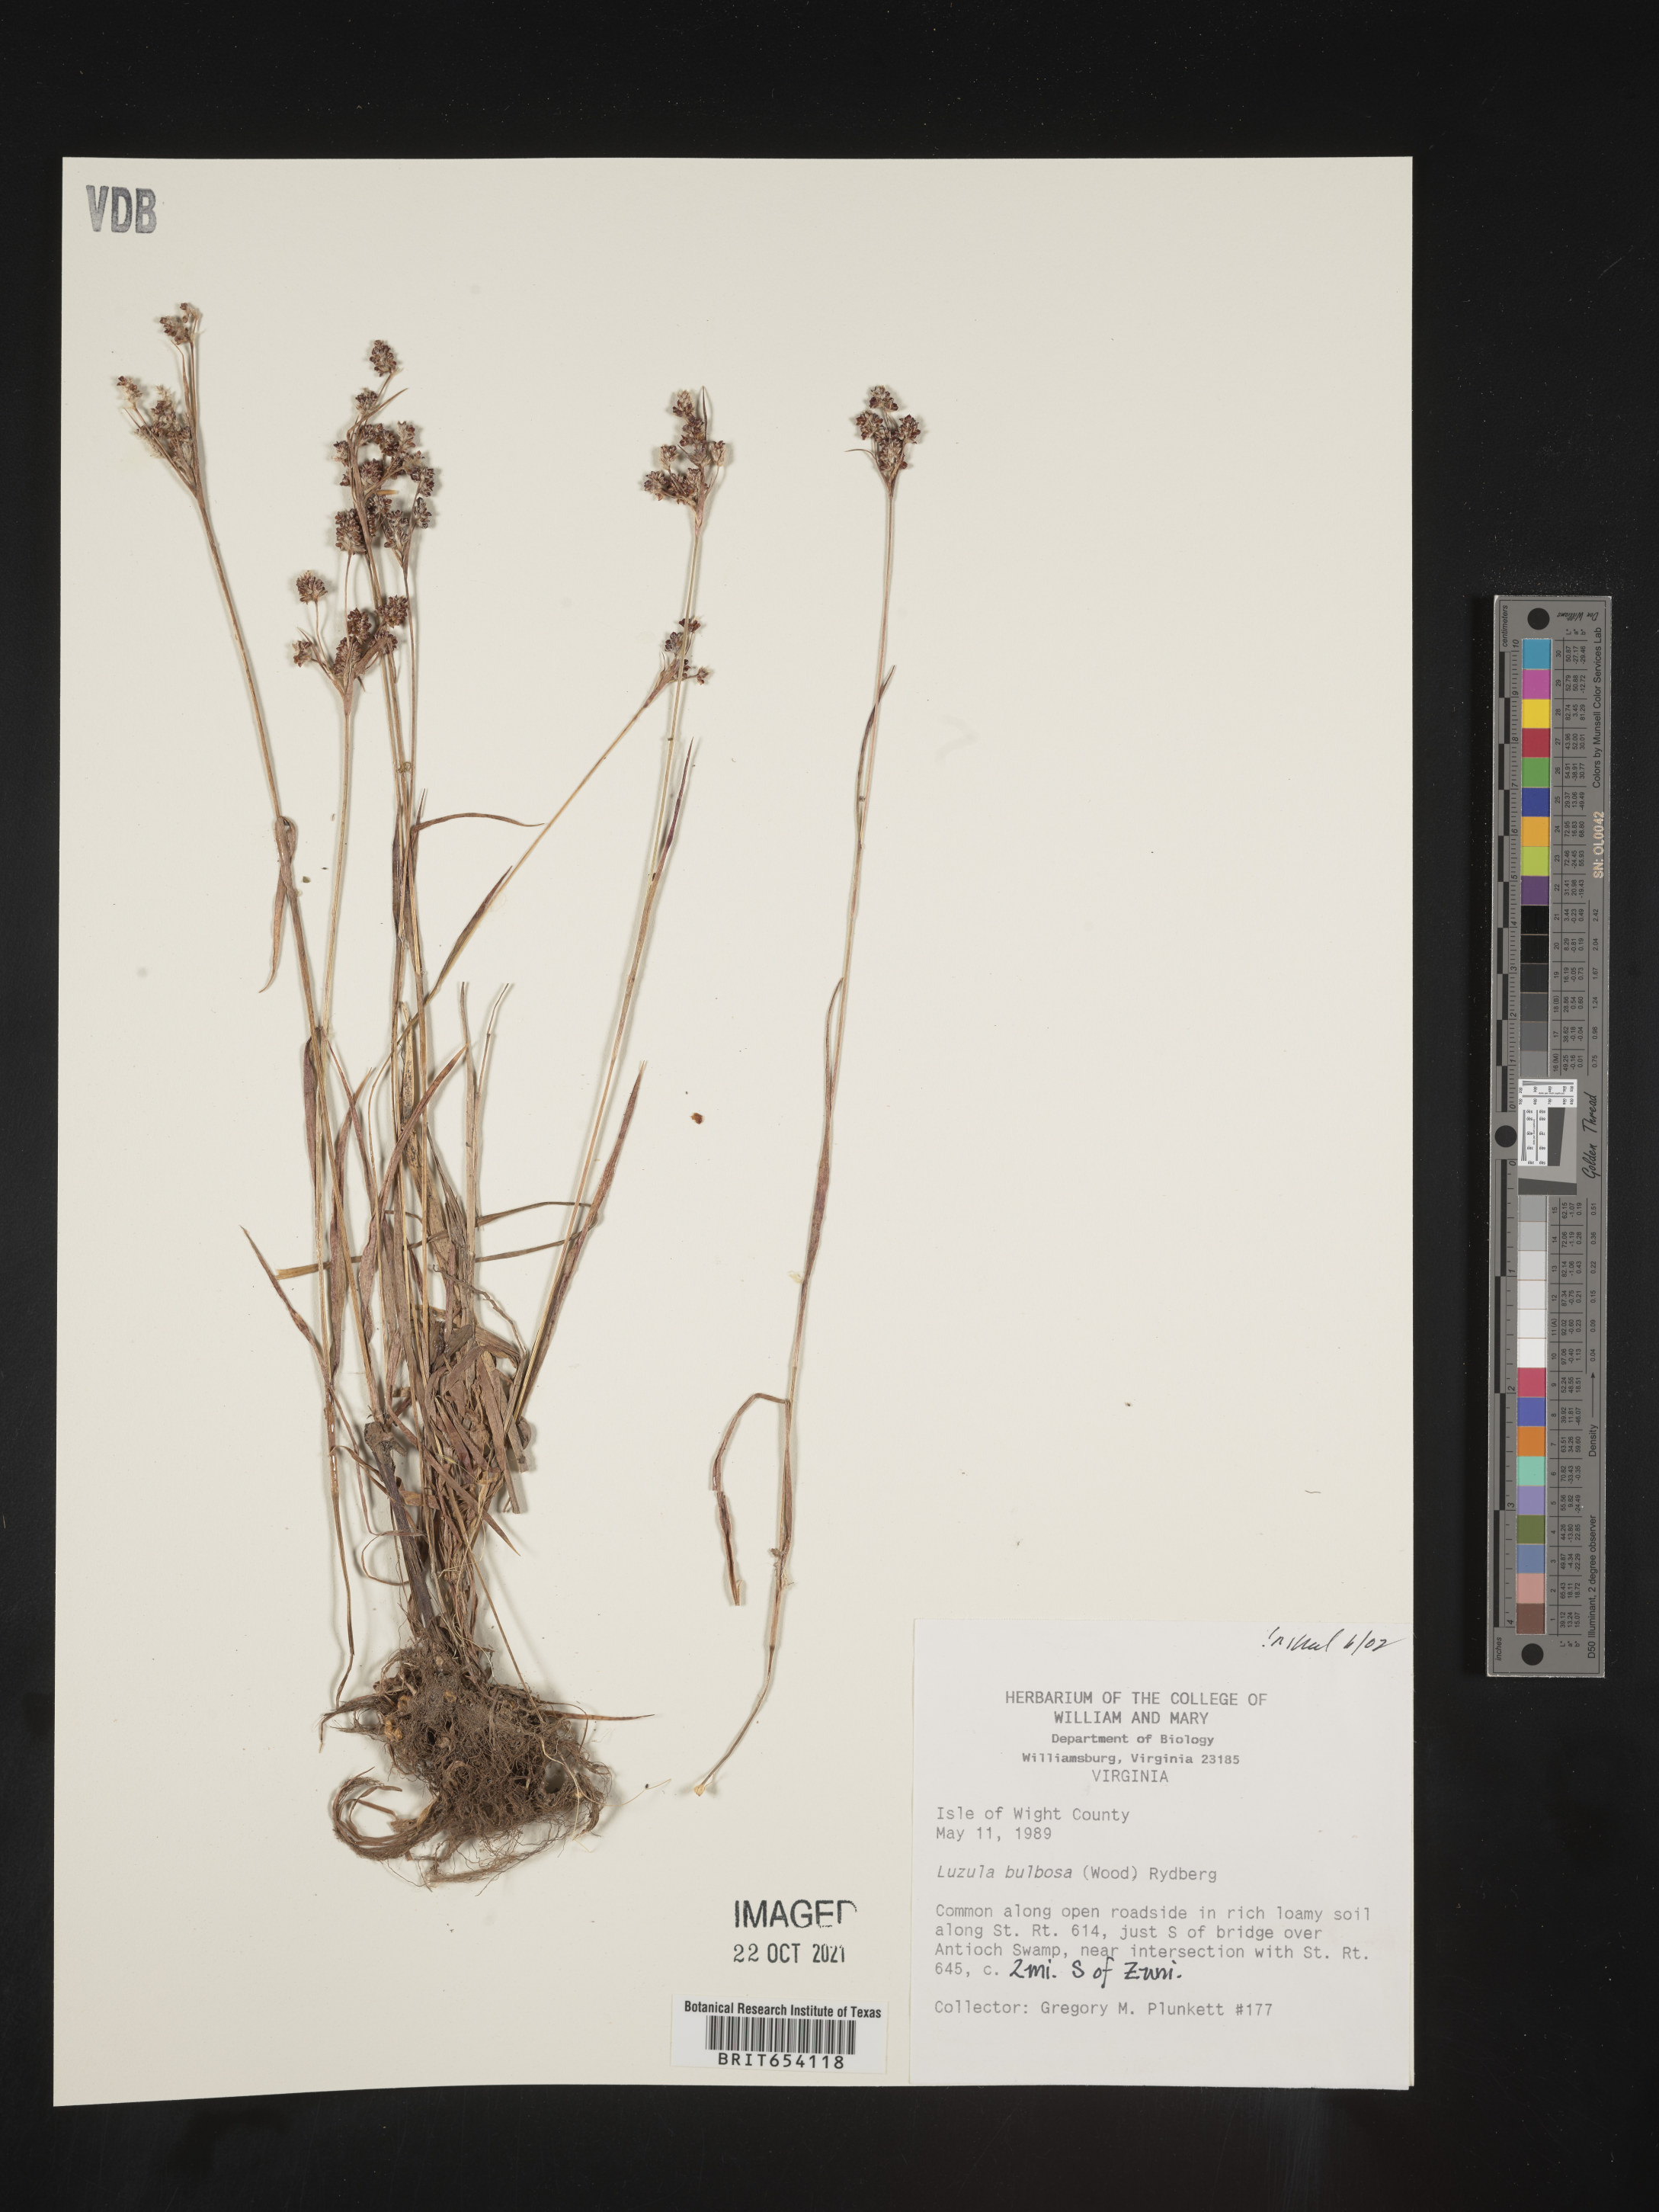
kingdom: Plantae
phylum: Tracheophyta
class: Liliopsida
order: Poales
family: Juncaceae
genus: Luzula
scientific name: Luzula bulbosa
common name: Bulbous woodrush
